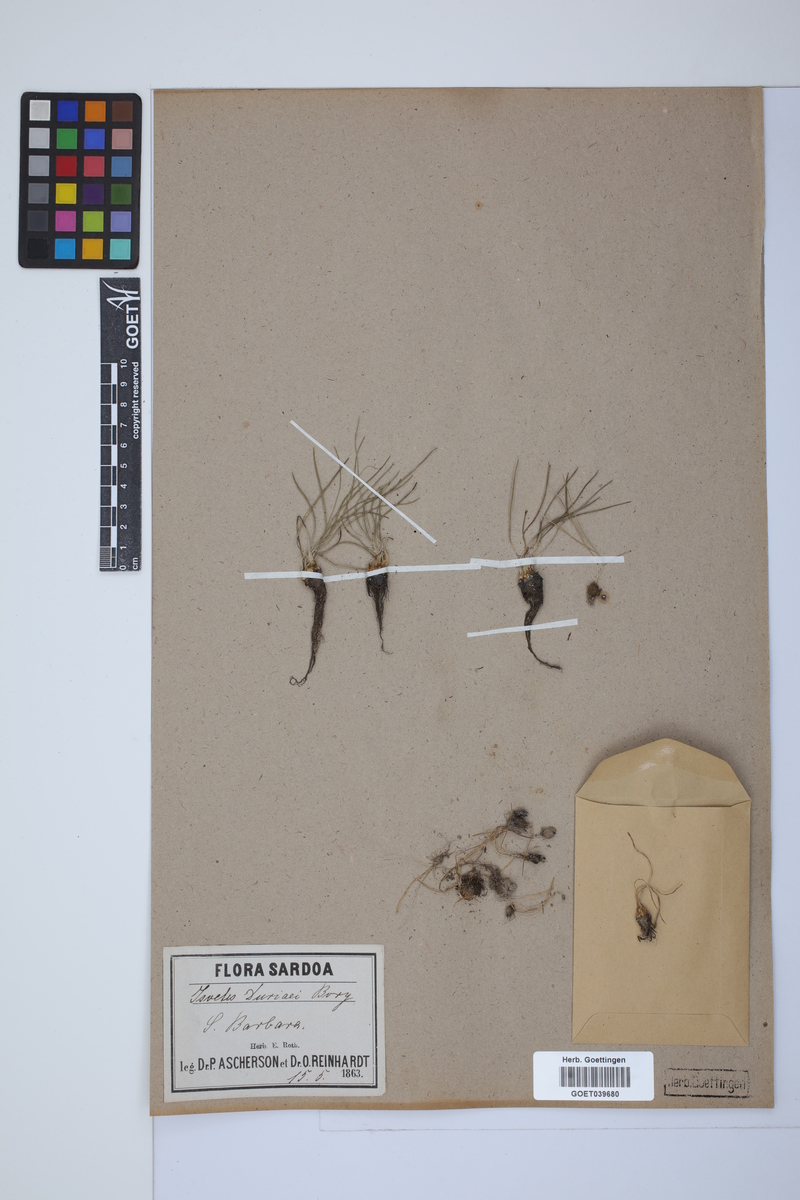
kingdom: Plantae
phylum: Tracheophyta
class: Lycopodiopsida
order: Isoetales
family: Isoetaceae
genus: Isoetes
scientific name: Isoetes duriei
